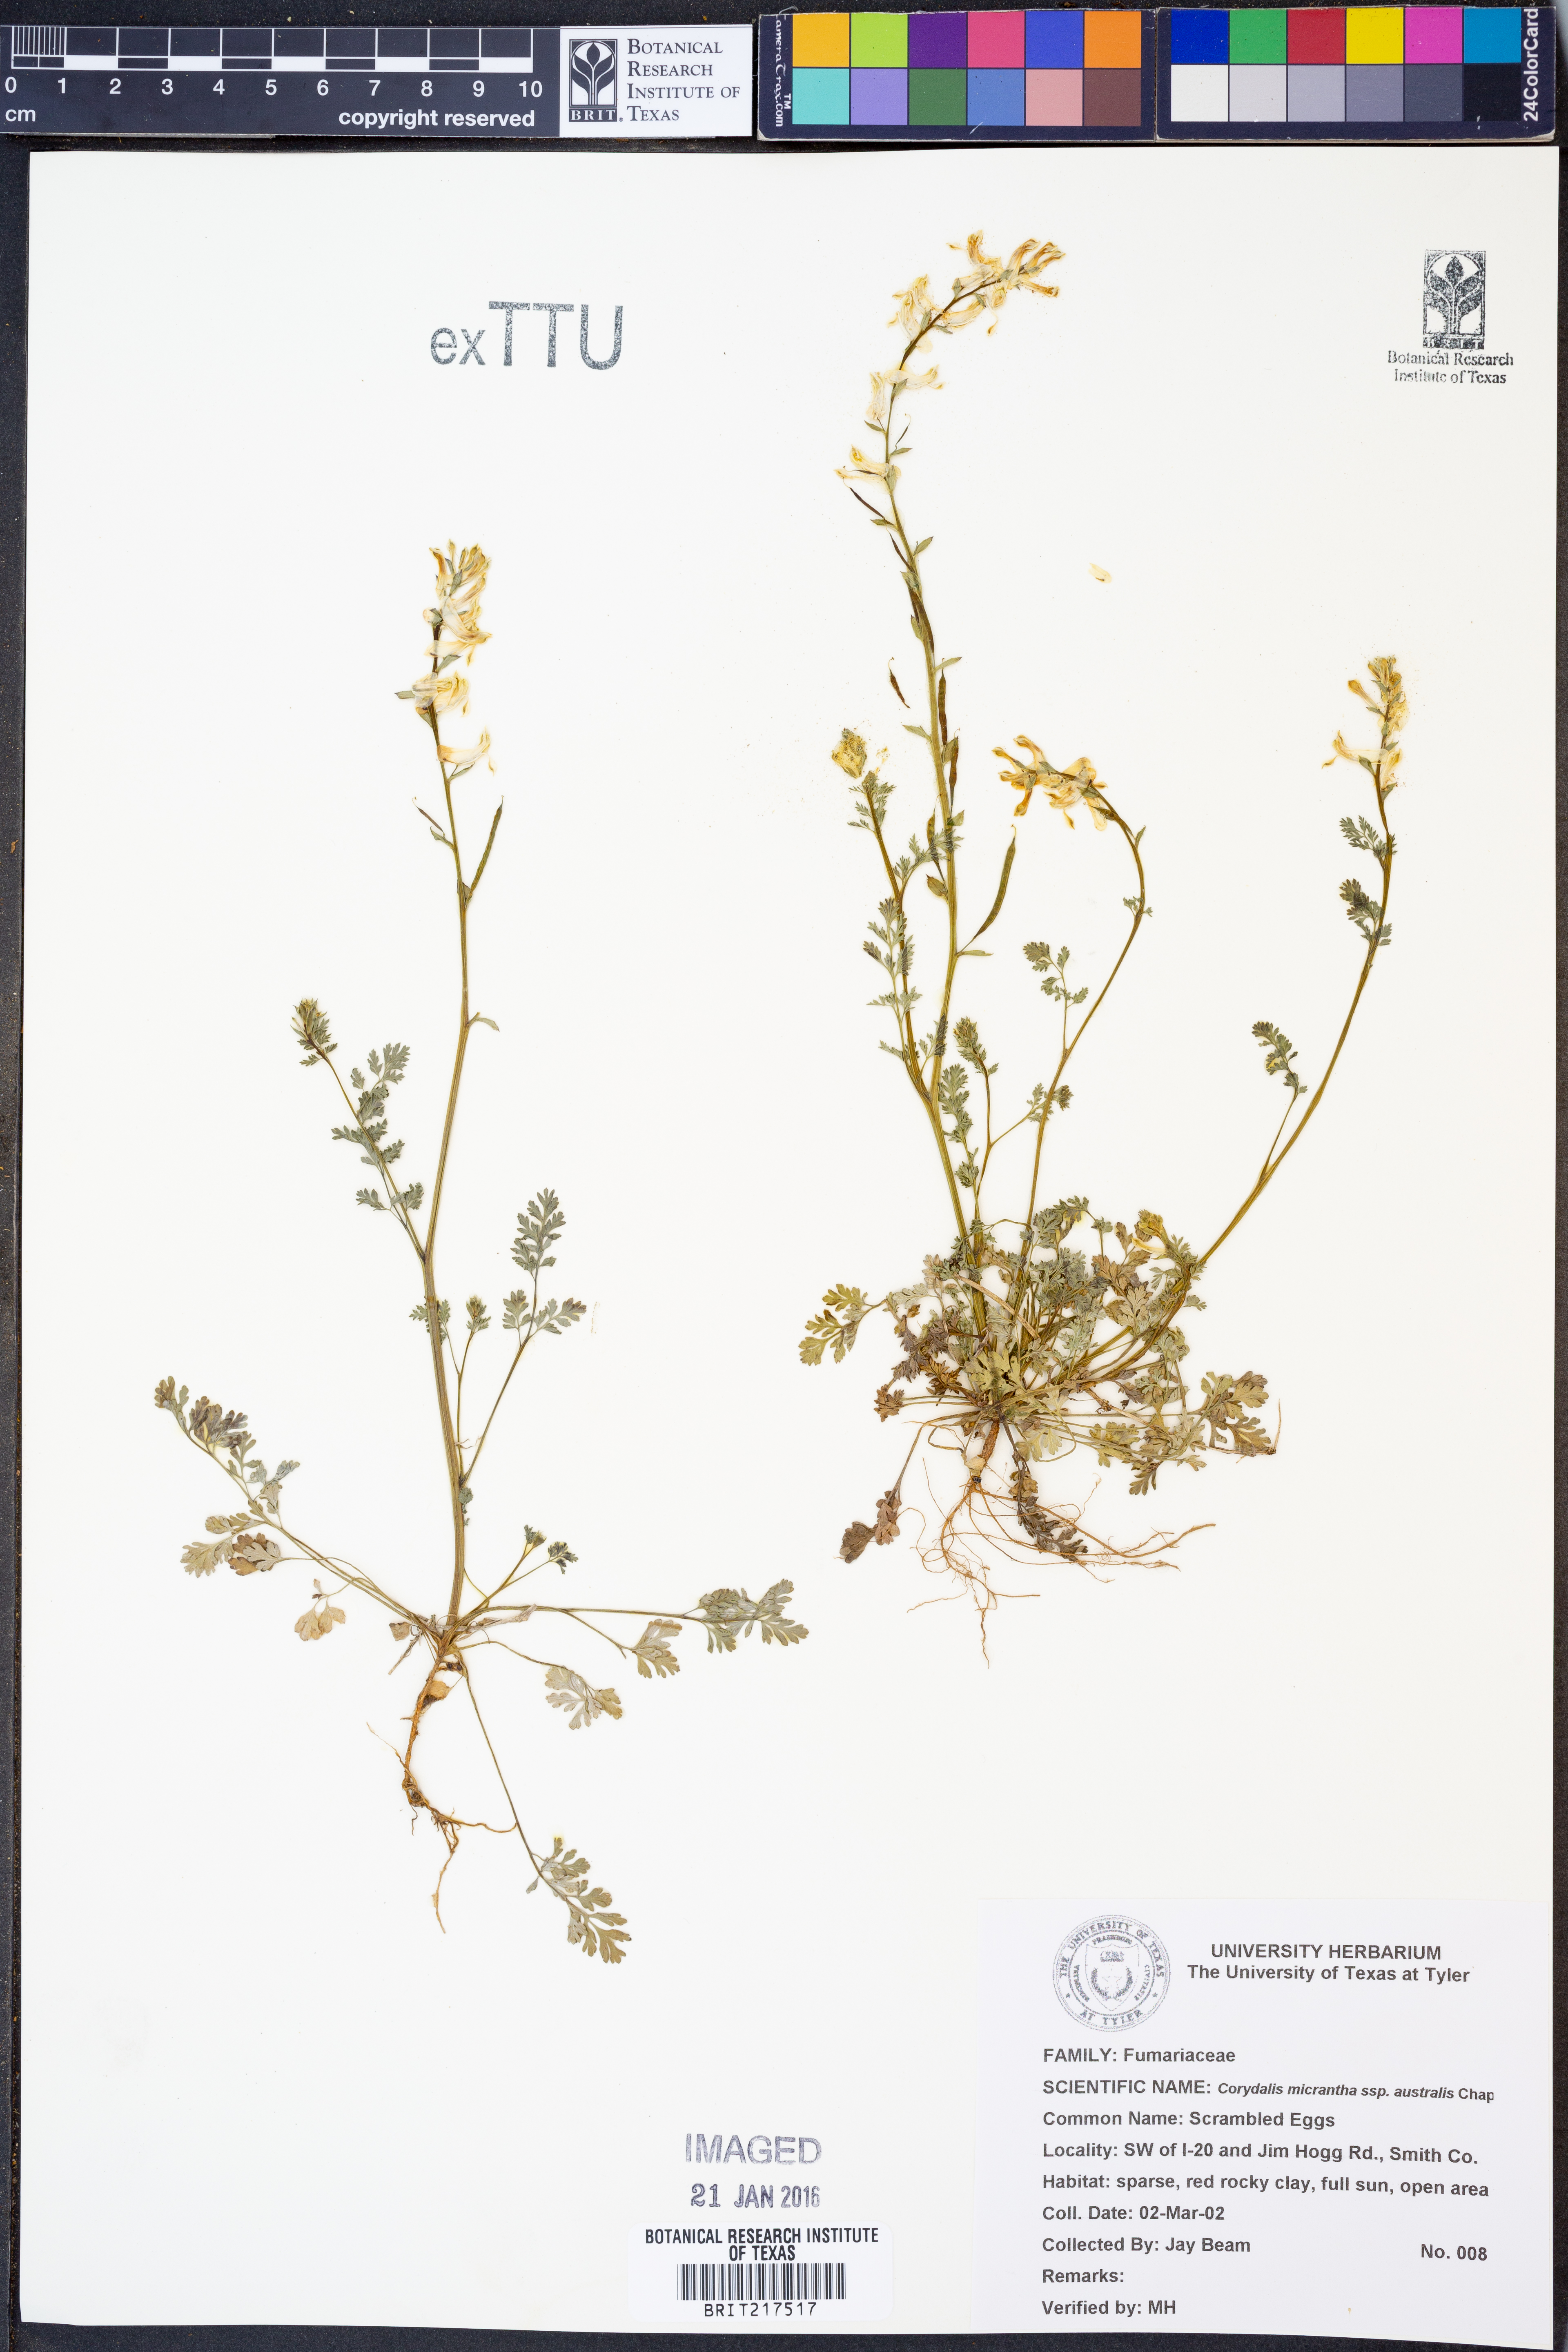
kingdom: Plantae
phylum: Tracheophyta
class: Magnoliopsida
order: Ranunculales
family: Papaveraceae
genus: Corydalis
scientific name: Corydalis micrantha
